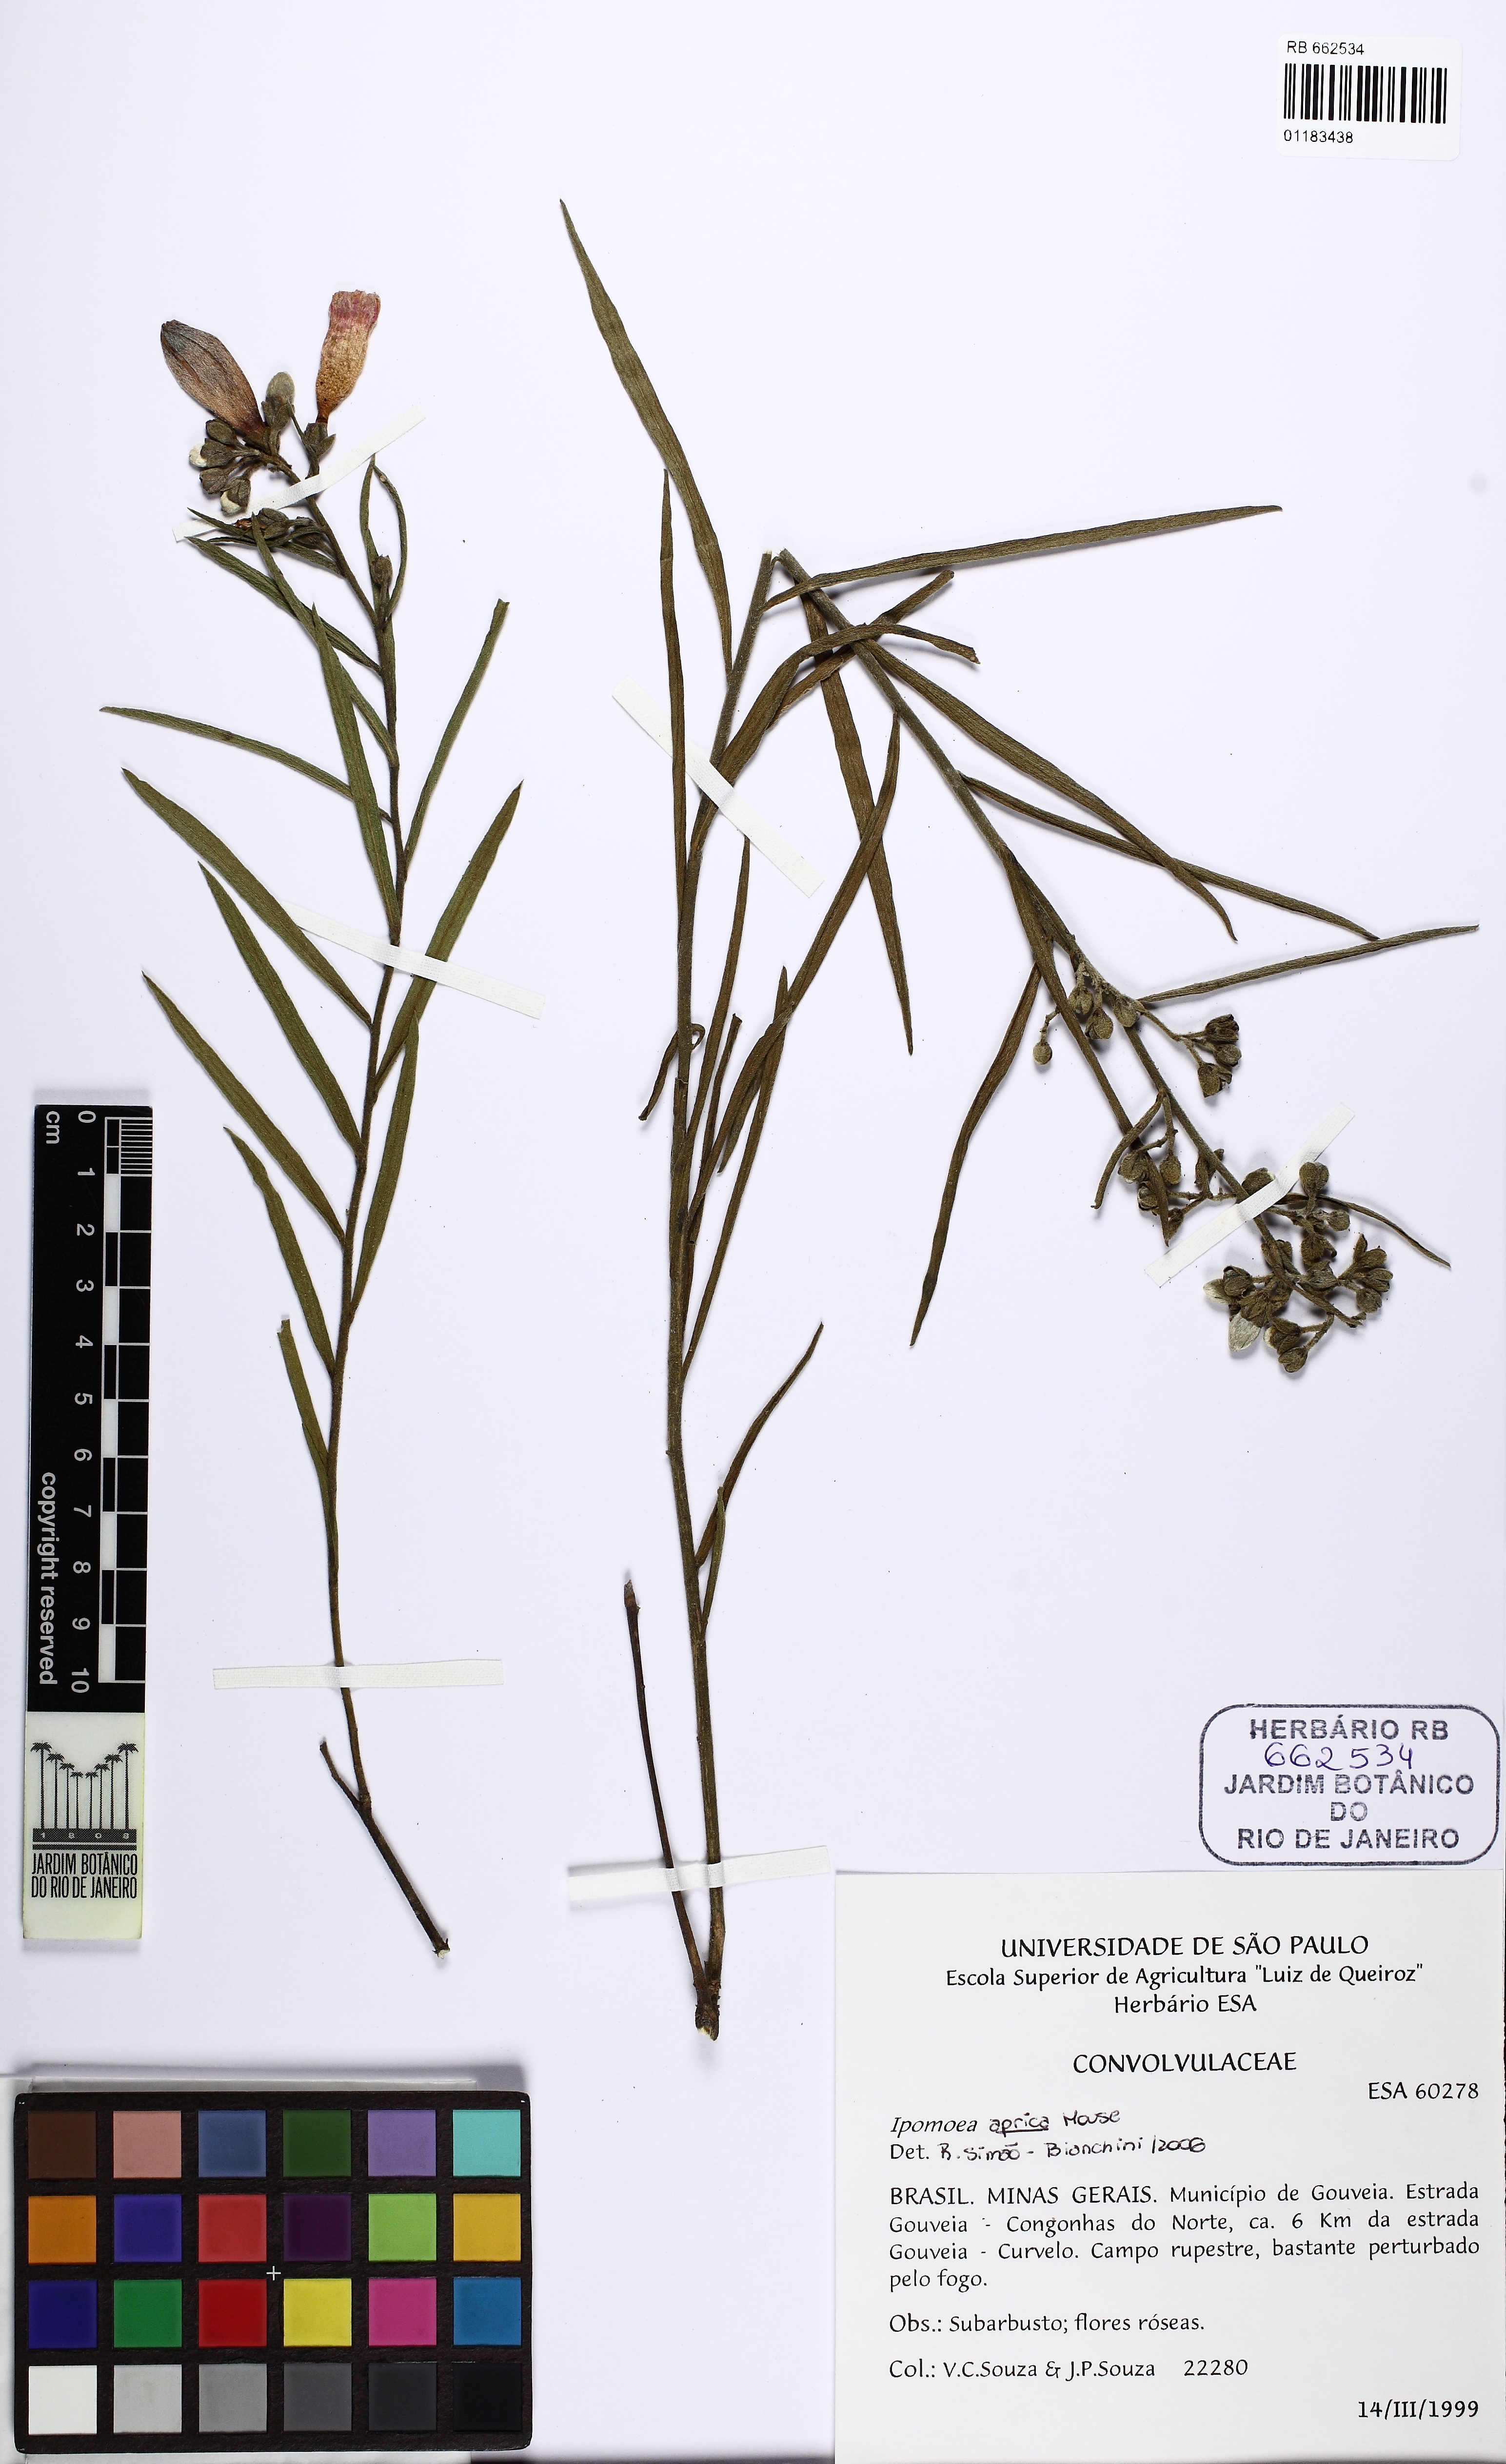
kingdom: Plantae
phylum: Tracheophyta
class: Magnoliopsida
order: Solanales
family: Convolvulaceae
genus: Ipomoea
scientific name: Ipomoea aprica
